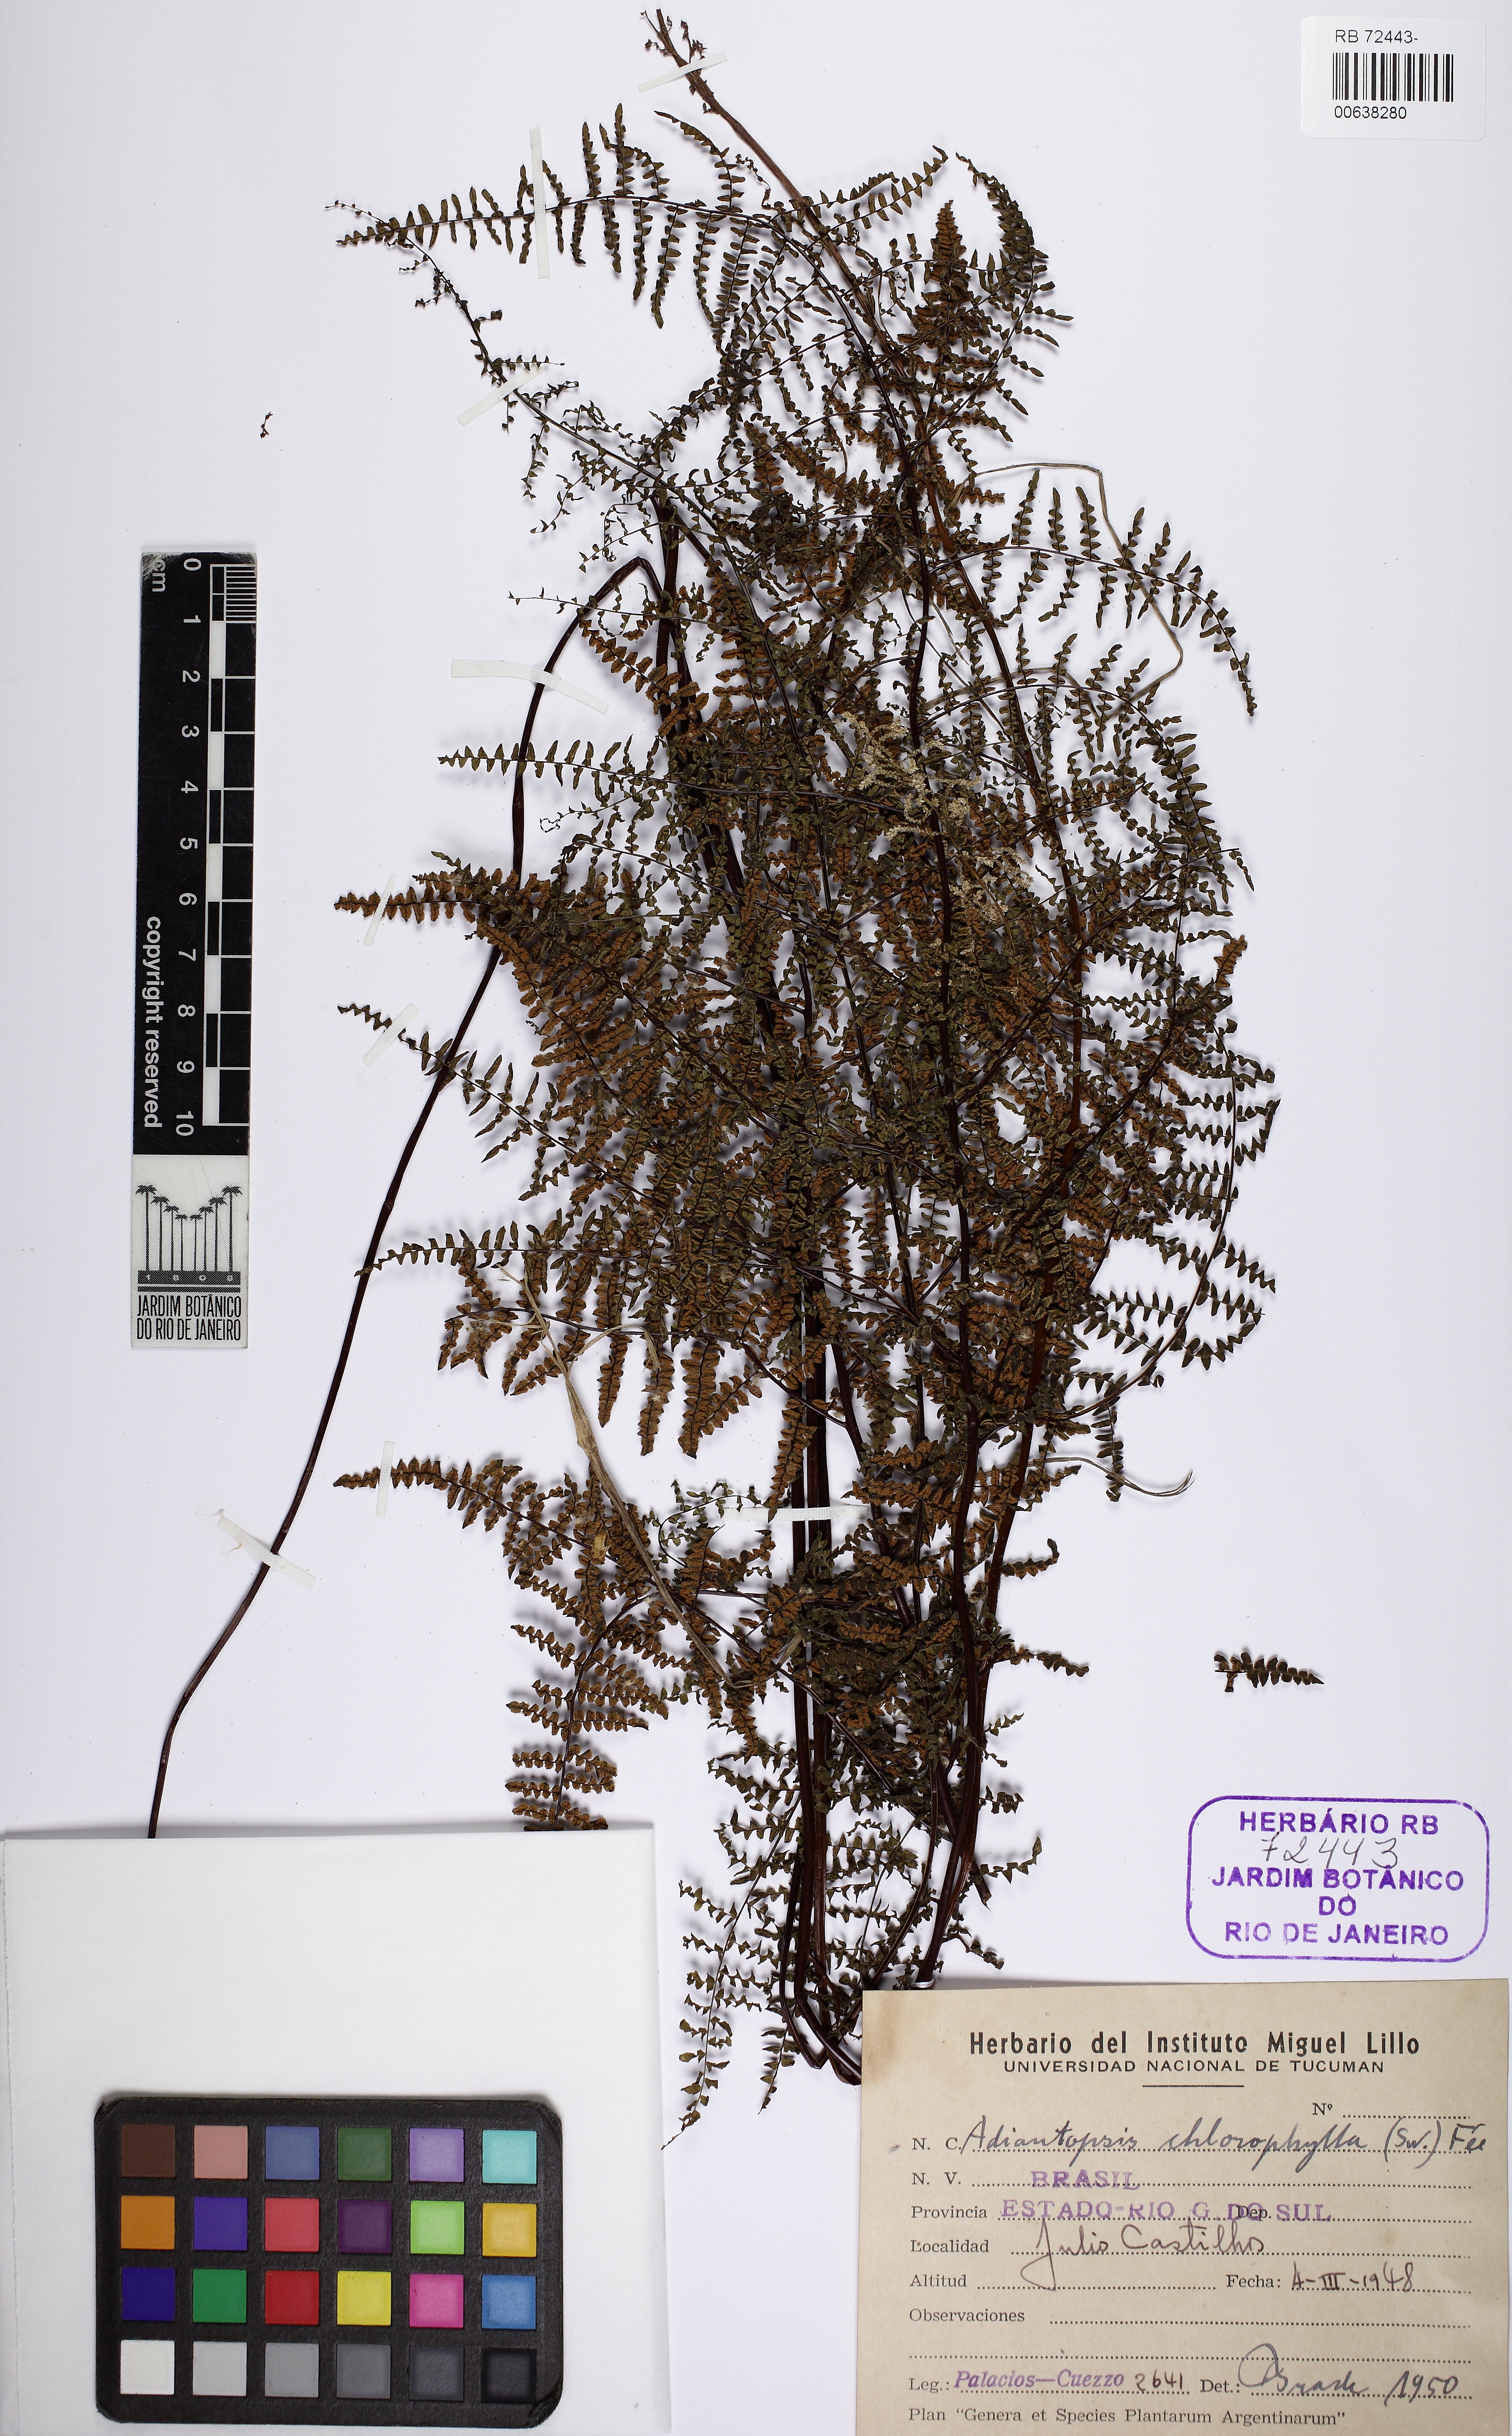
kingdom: Plantae
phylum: Tracheophyta
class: Polypodiopsida
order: Polypodiales
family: Pteridaceae
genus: Adiantopsis
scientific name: Adiantopsis chlorophylla
